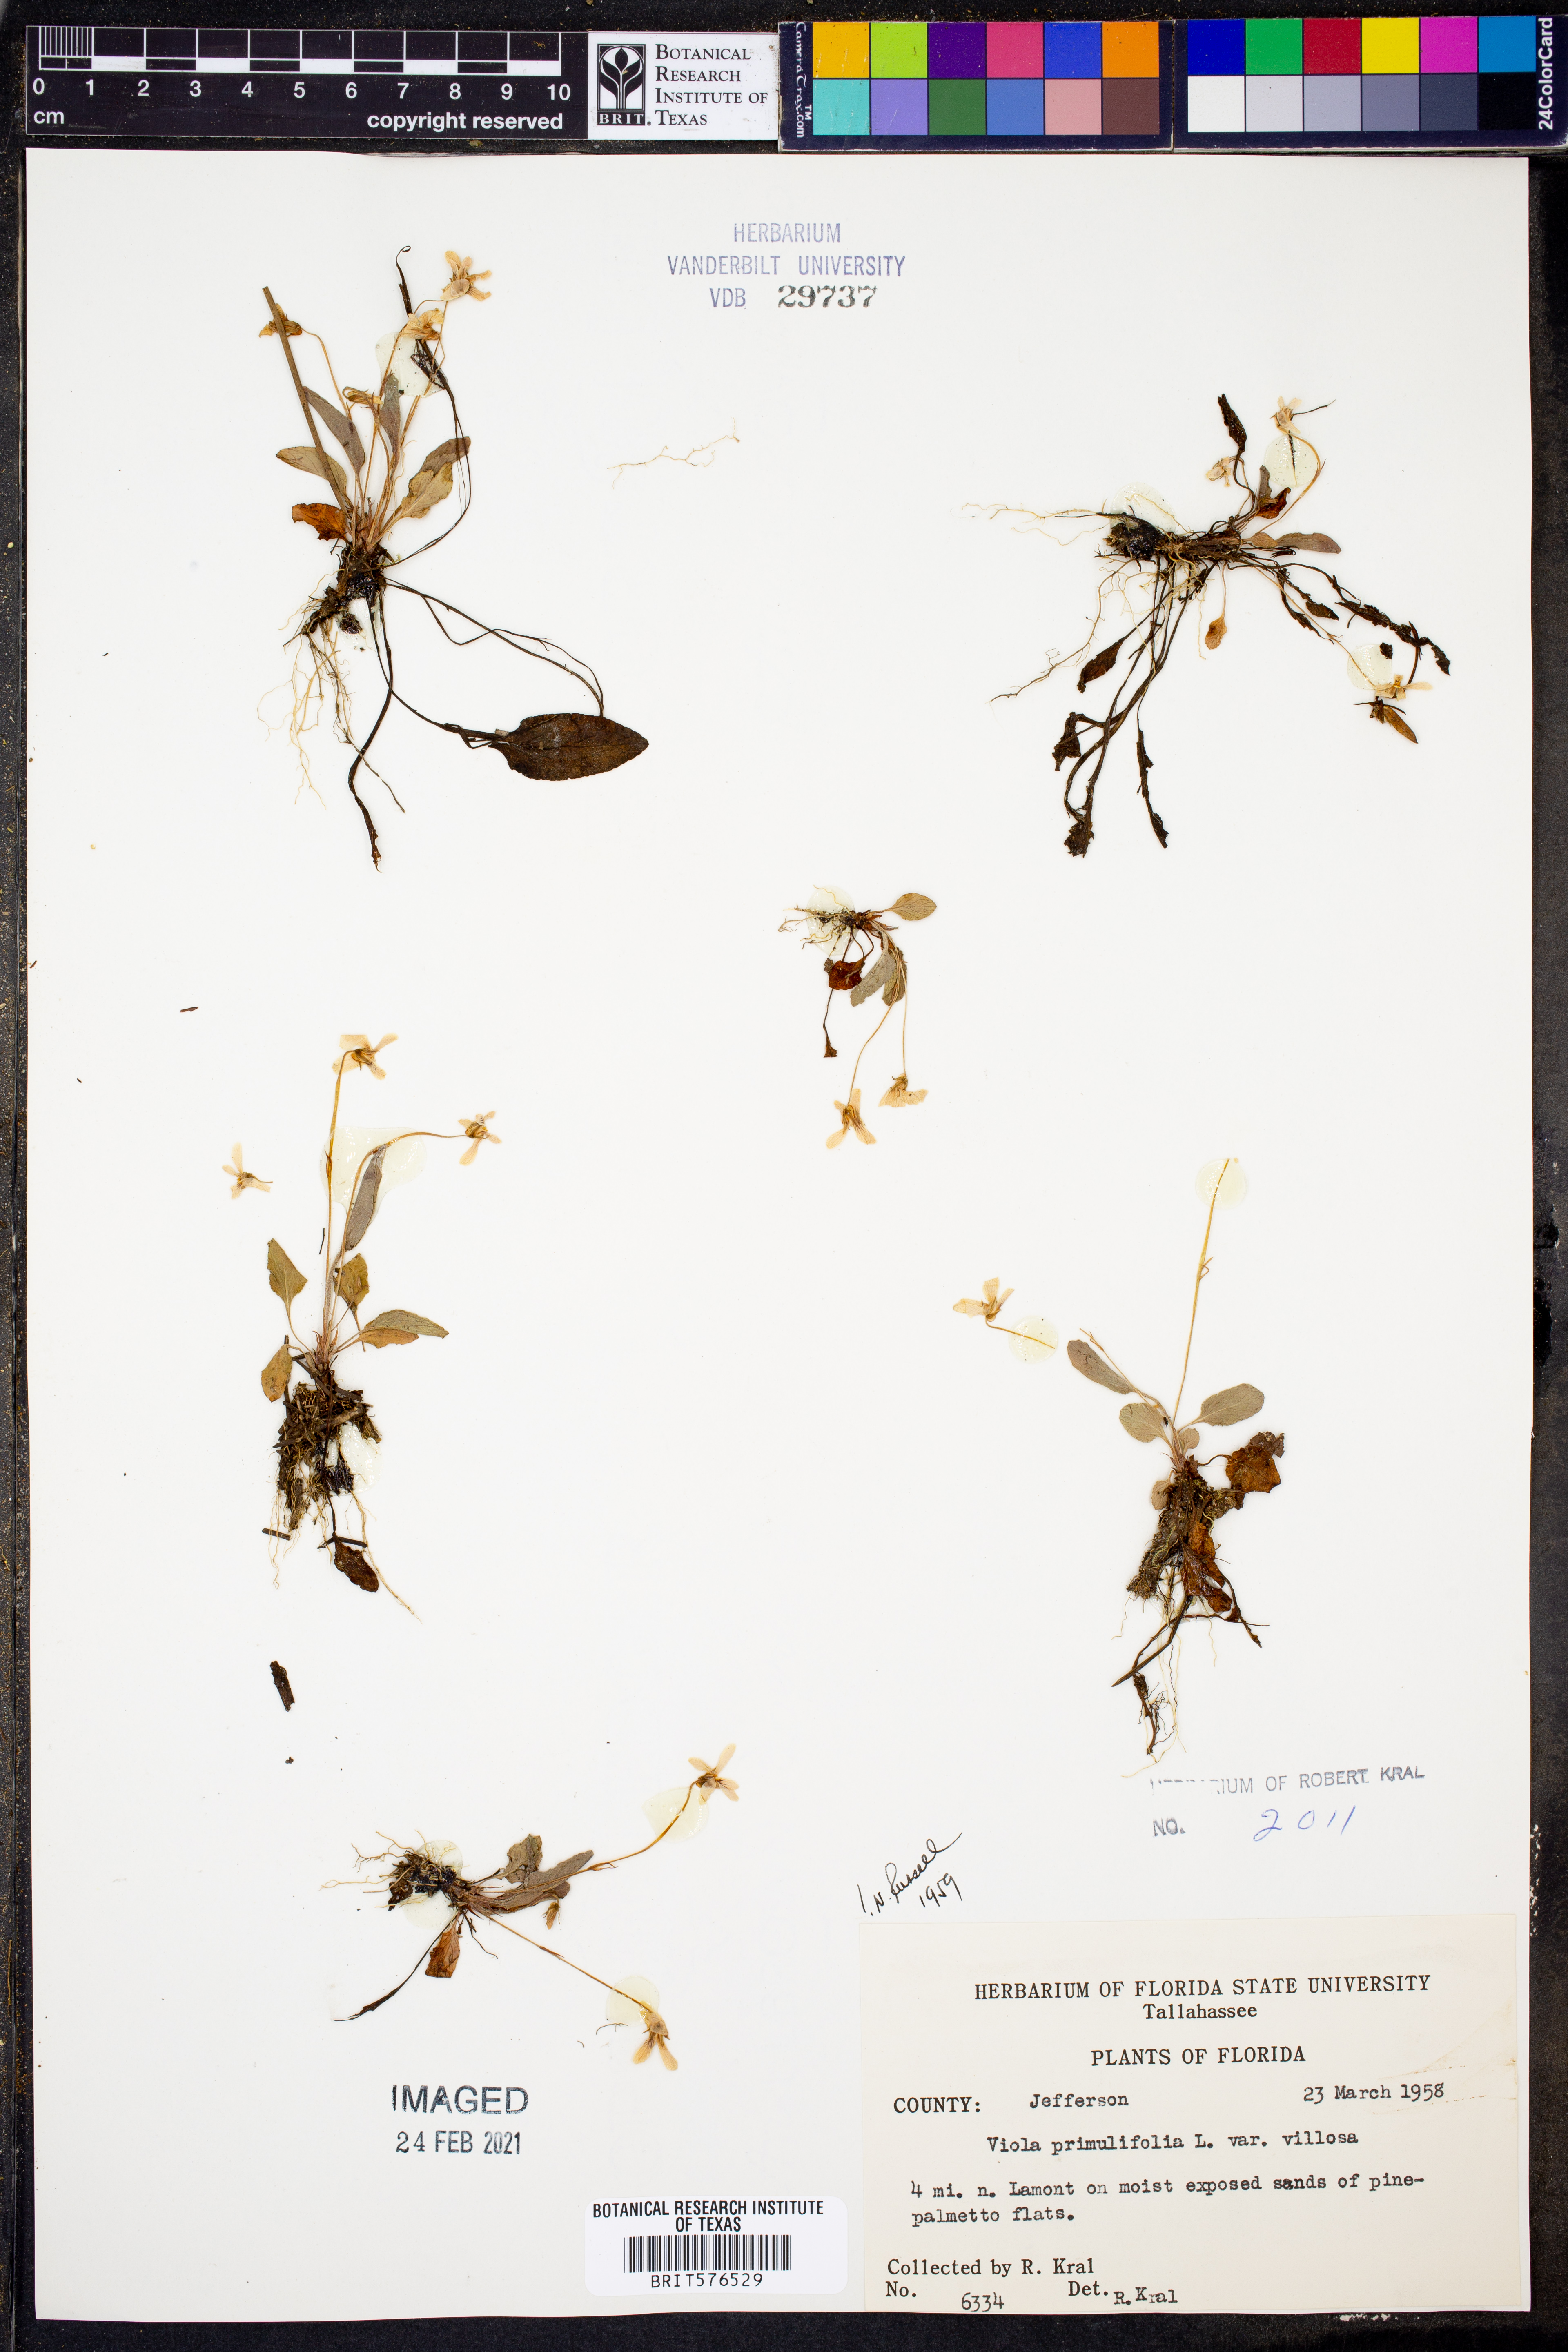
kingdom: Plantae
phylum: Tracheophyta
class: Magnoliopsida
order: Malpighiales
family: Violaceae
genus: Viola
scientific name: Viola primulifolia
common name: Primrose-leaf violet
